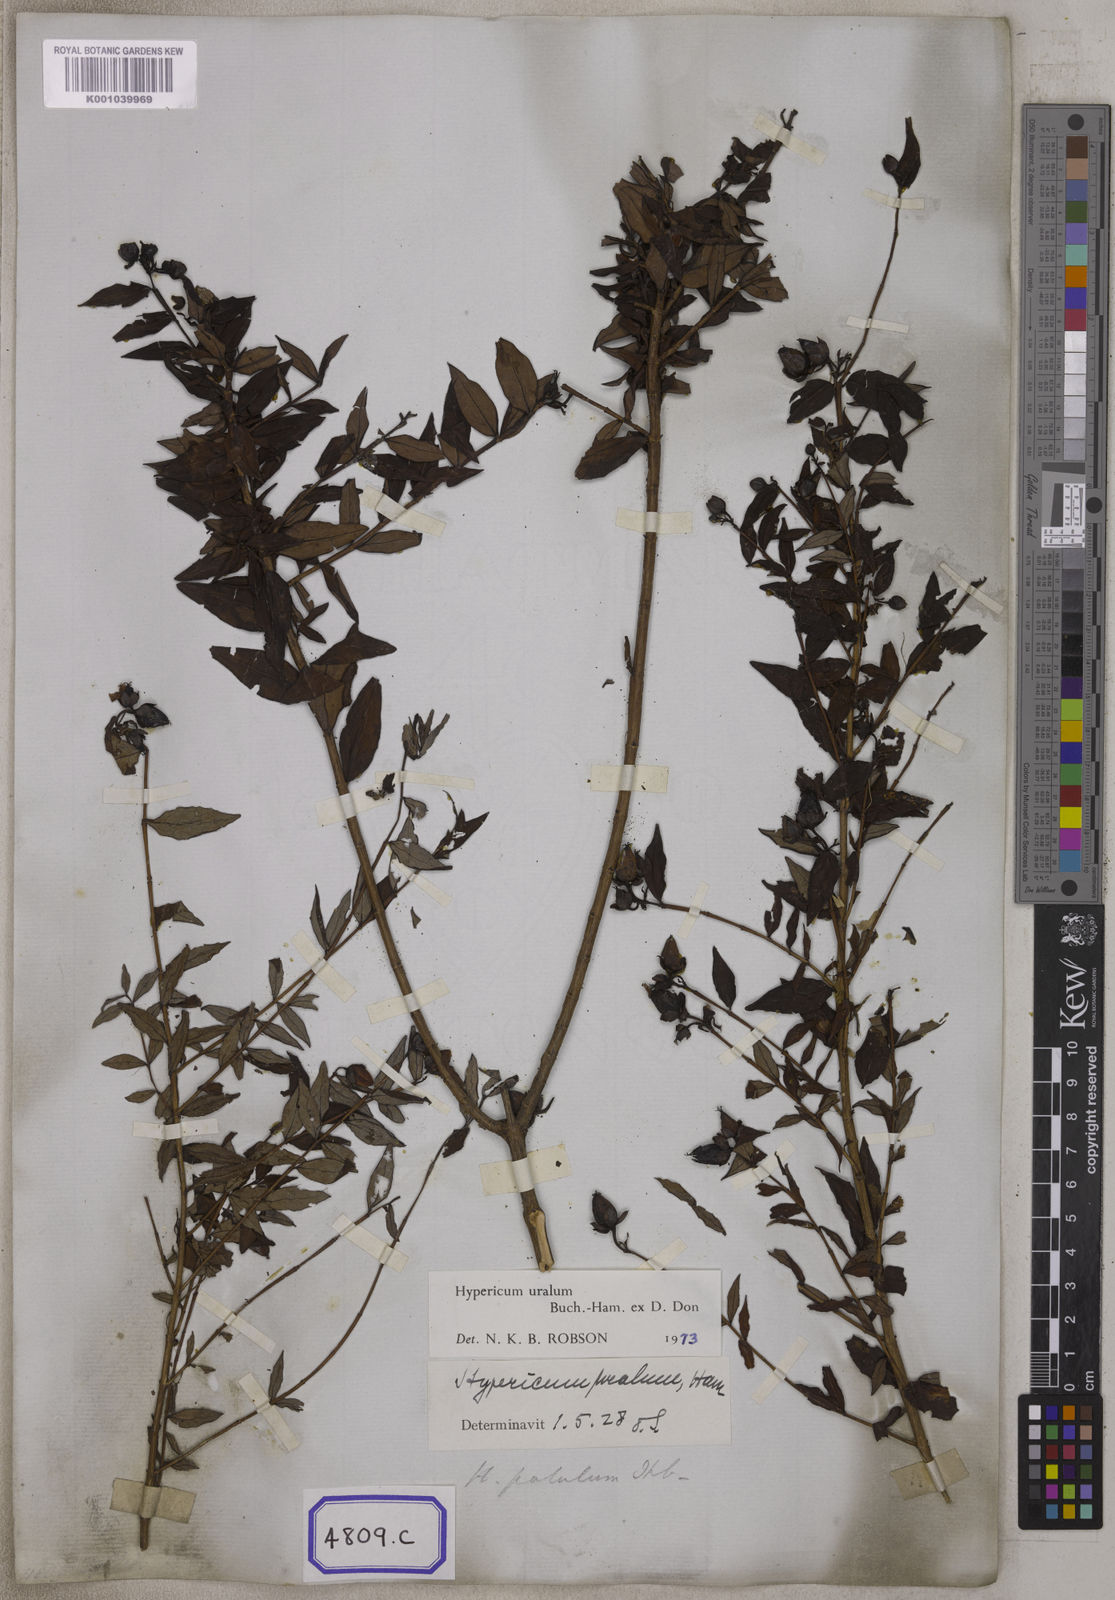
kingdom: Plantae
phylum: Tracheophyta
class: Magnoliopsida
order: Malpighiales
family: Hypericaceae
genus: Hypericum
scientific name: Hypericum patulum
